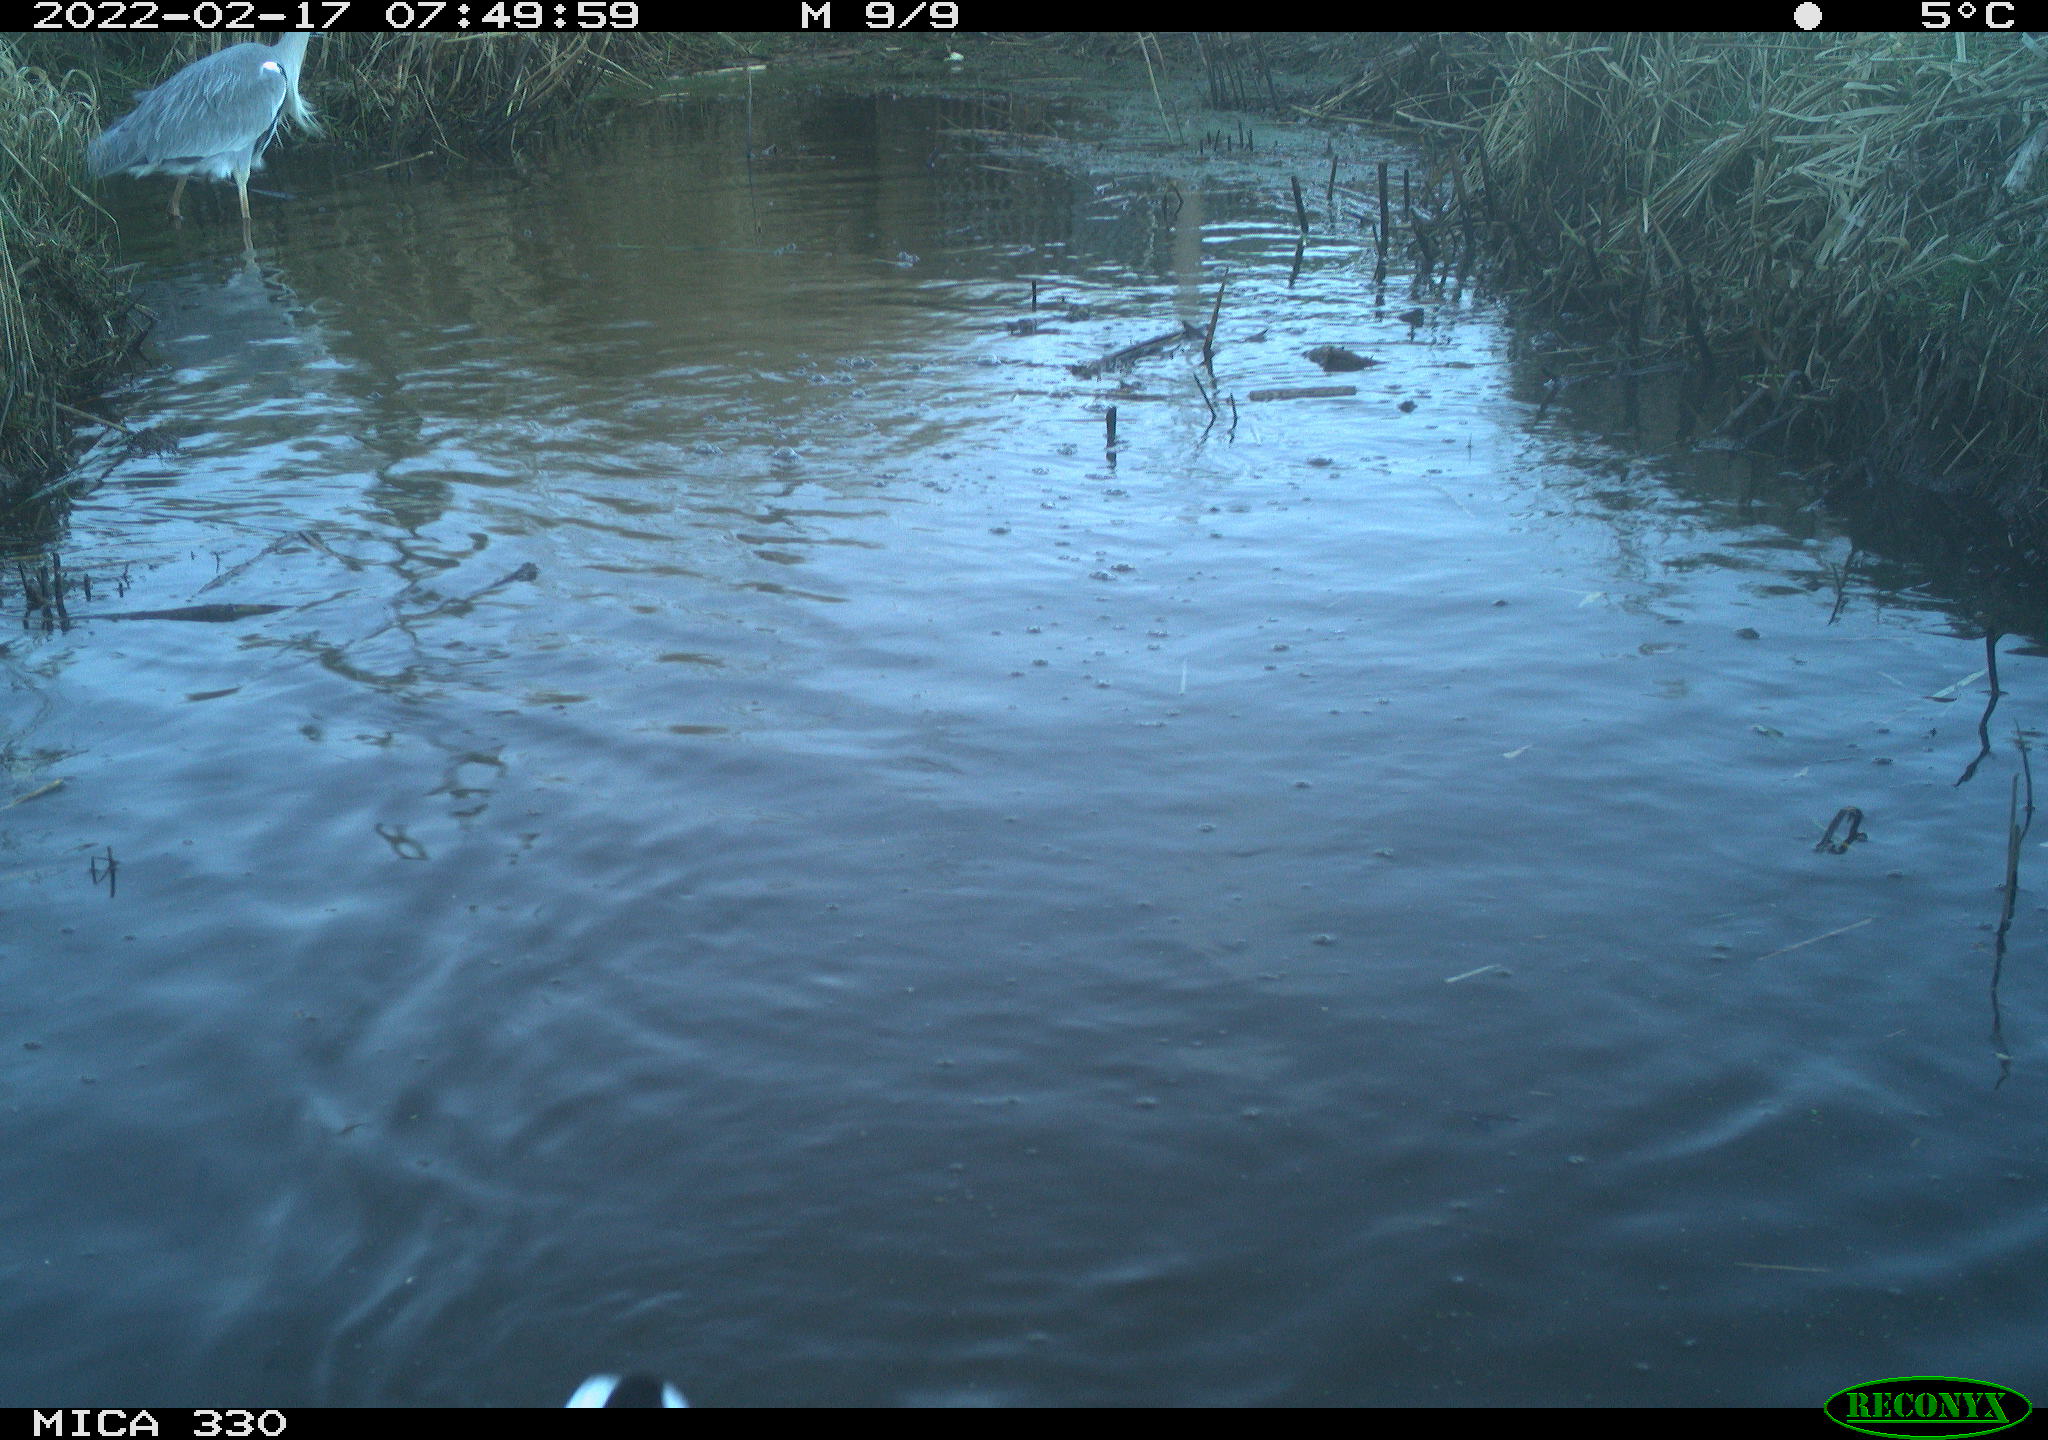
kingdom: Animalia
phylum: Chordata
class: Aves
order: Gruiformes
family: Rallidae
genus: Gallinula
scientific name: Gallinula chloropus
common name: Common moorhen
